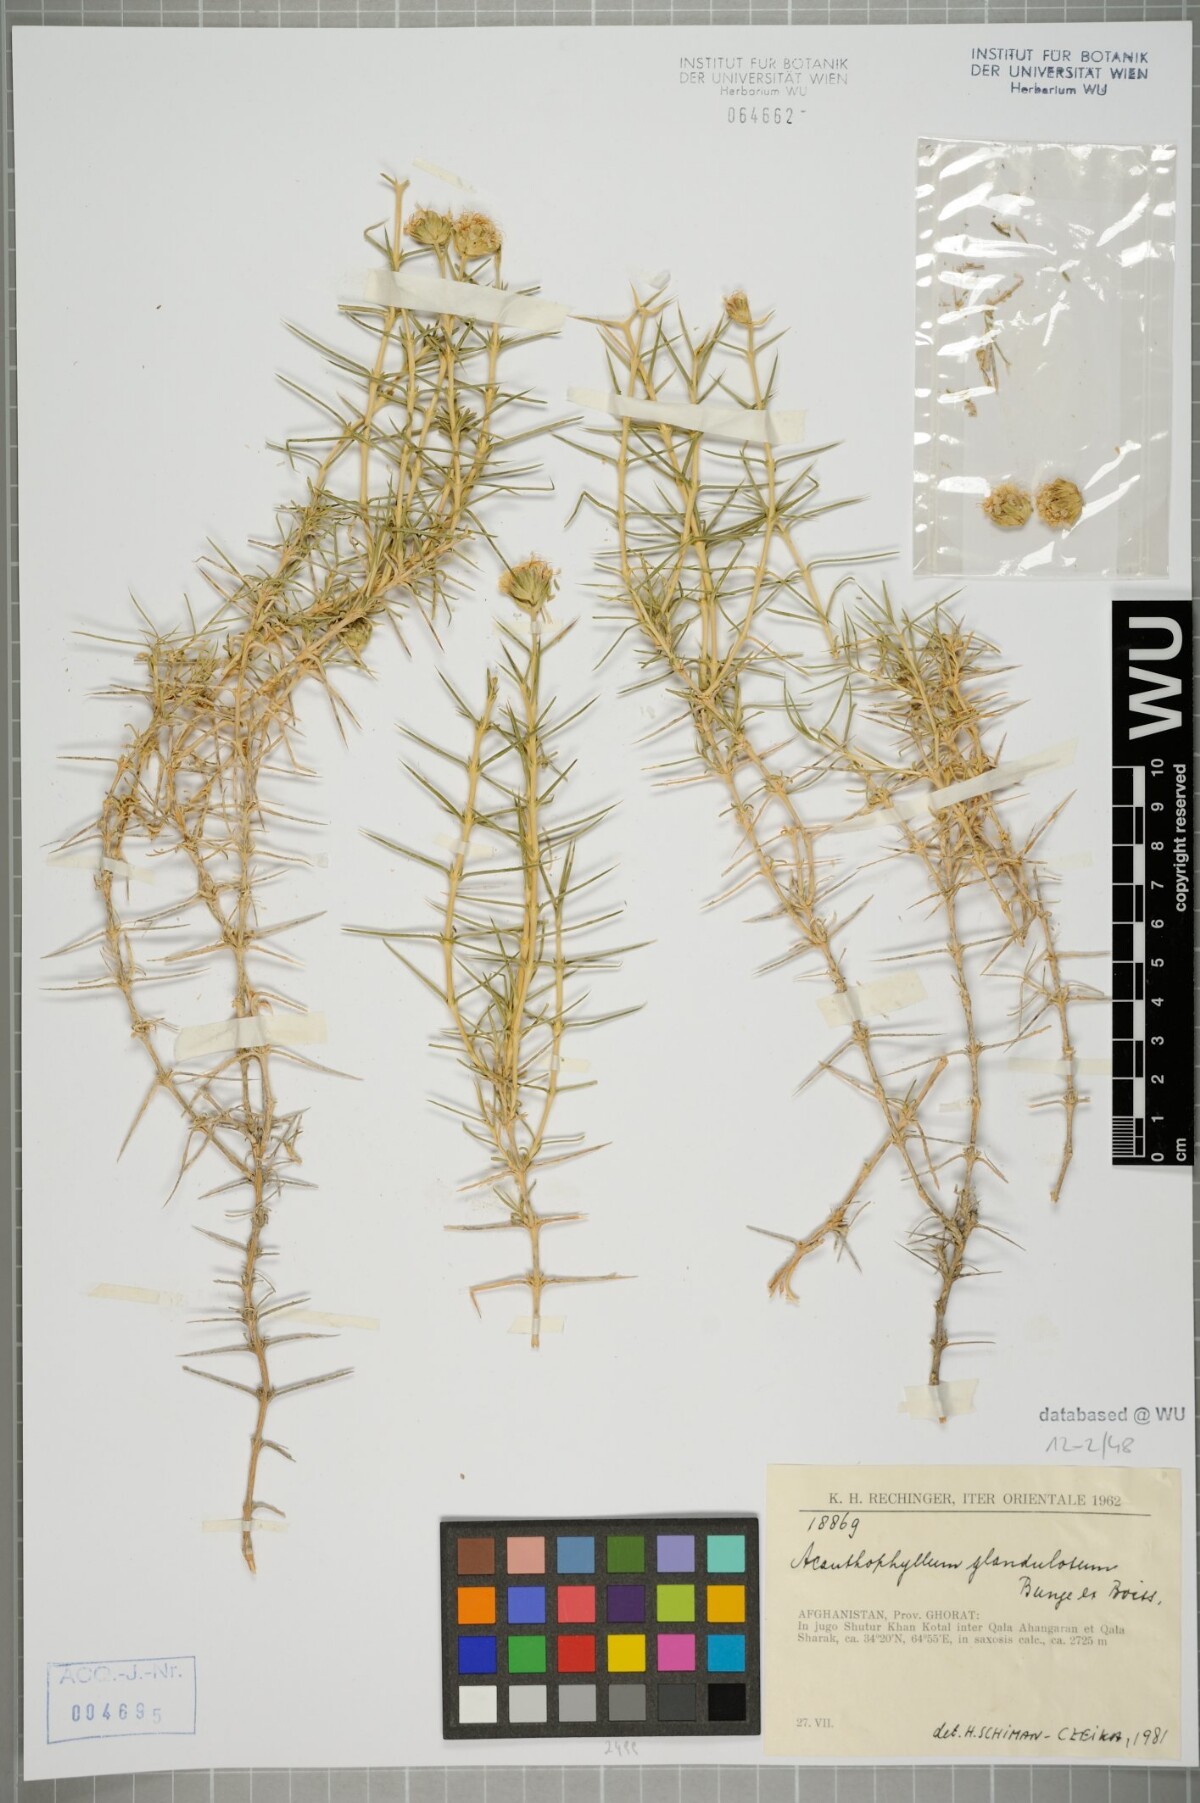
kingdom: Plantae
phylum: Tracheophyta
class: Magnoliopsida
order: Caryophyllales
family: Caryophyllaceae
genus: Acanthophyllum
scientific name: Acanthophyllum glandulosum
